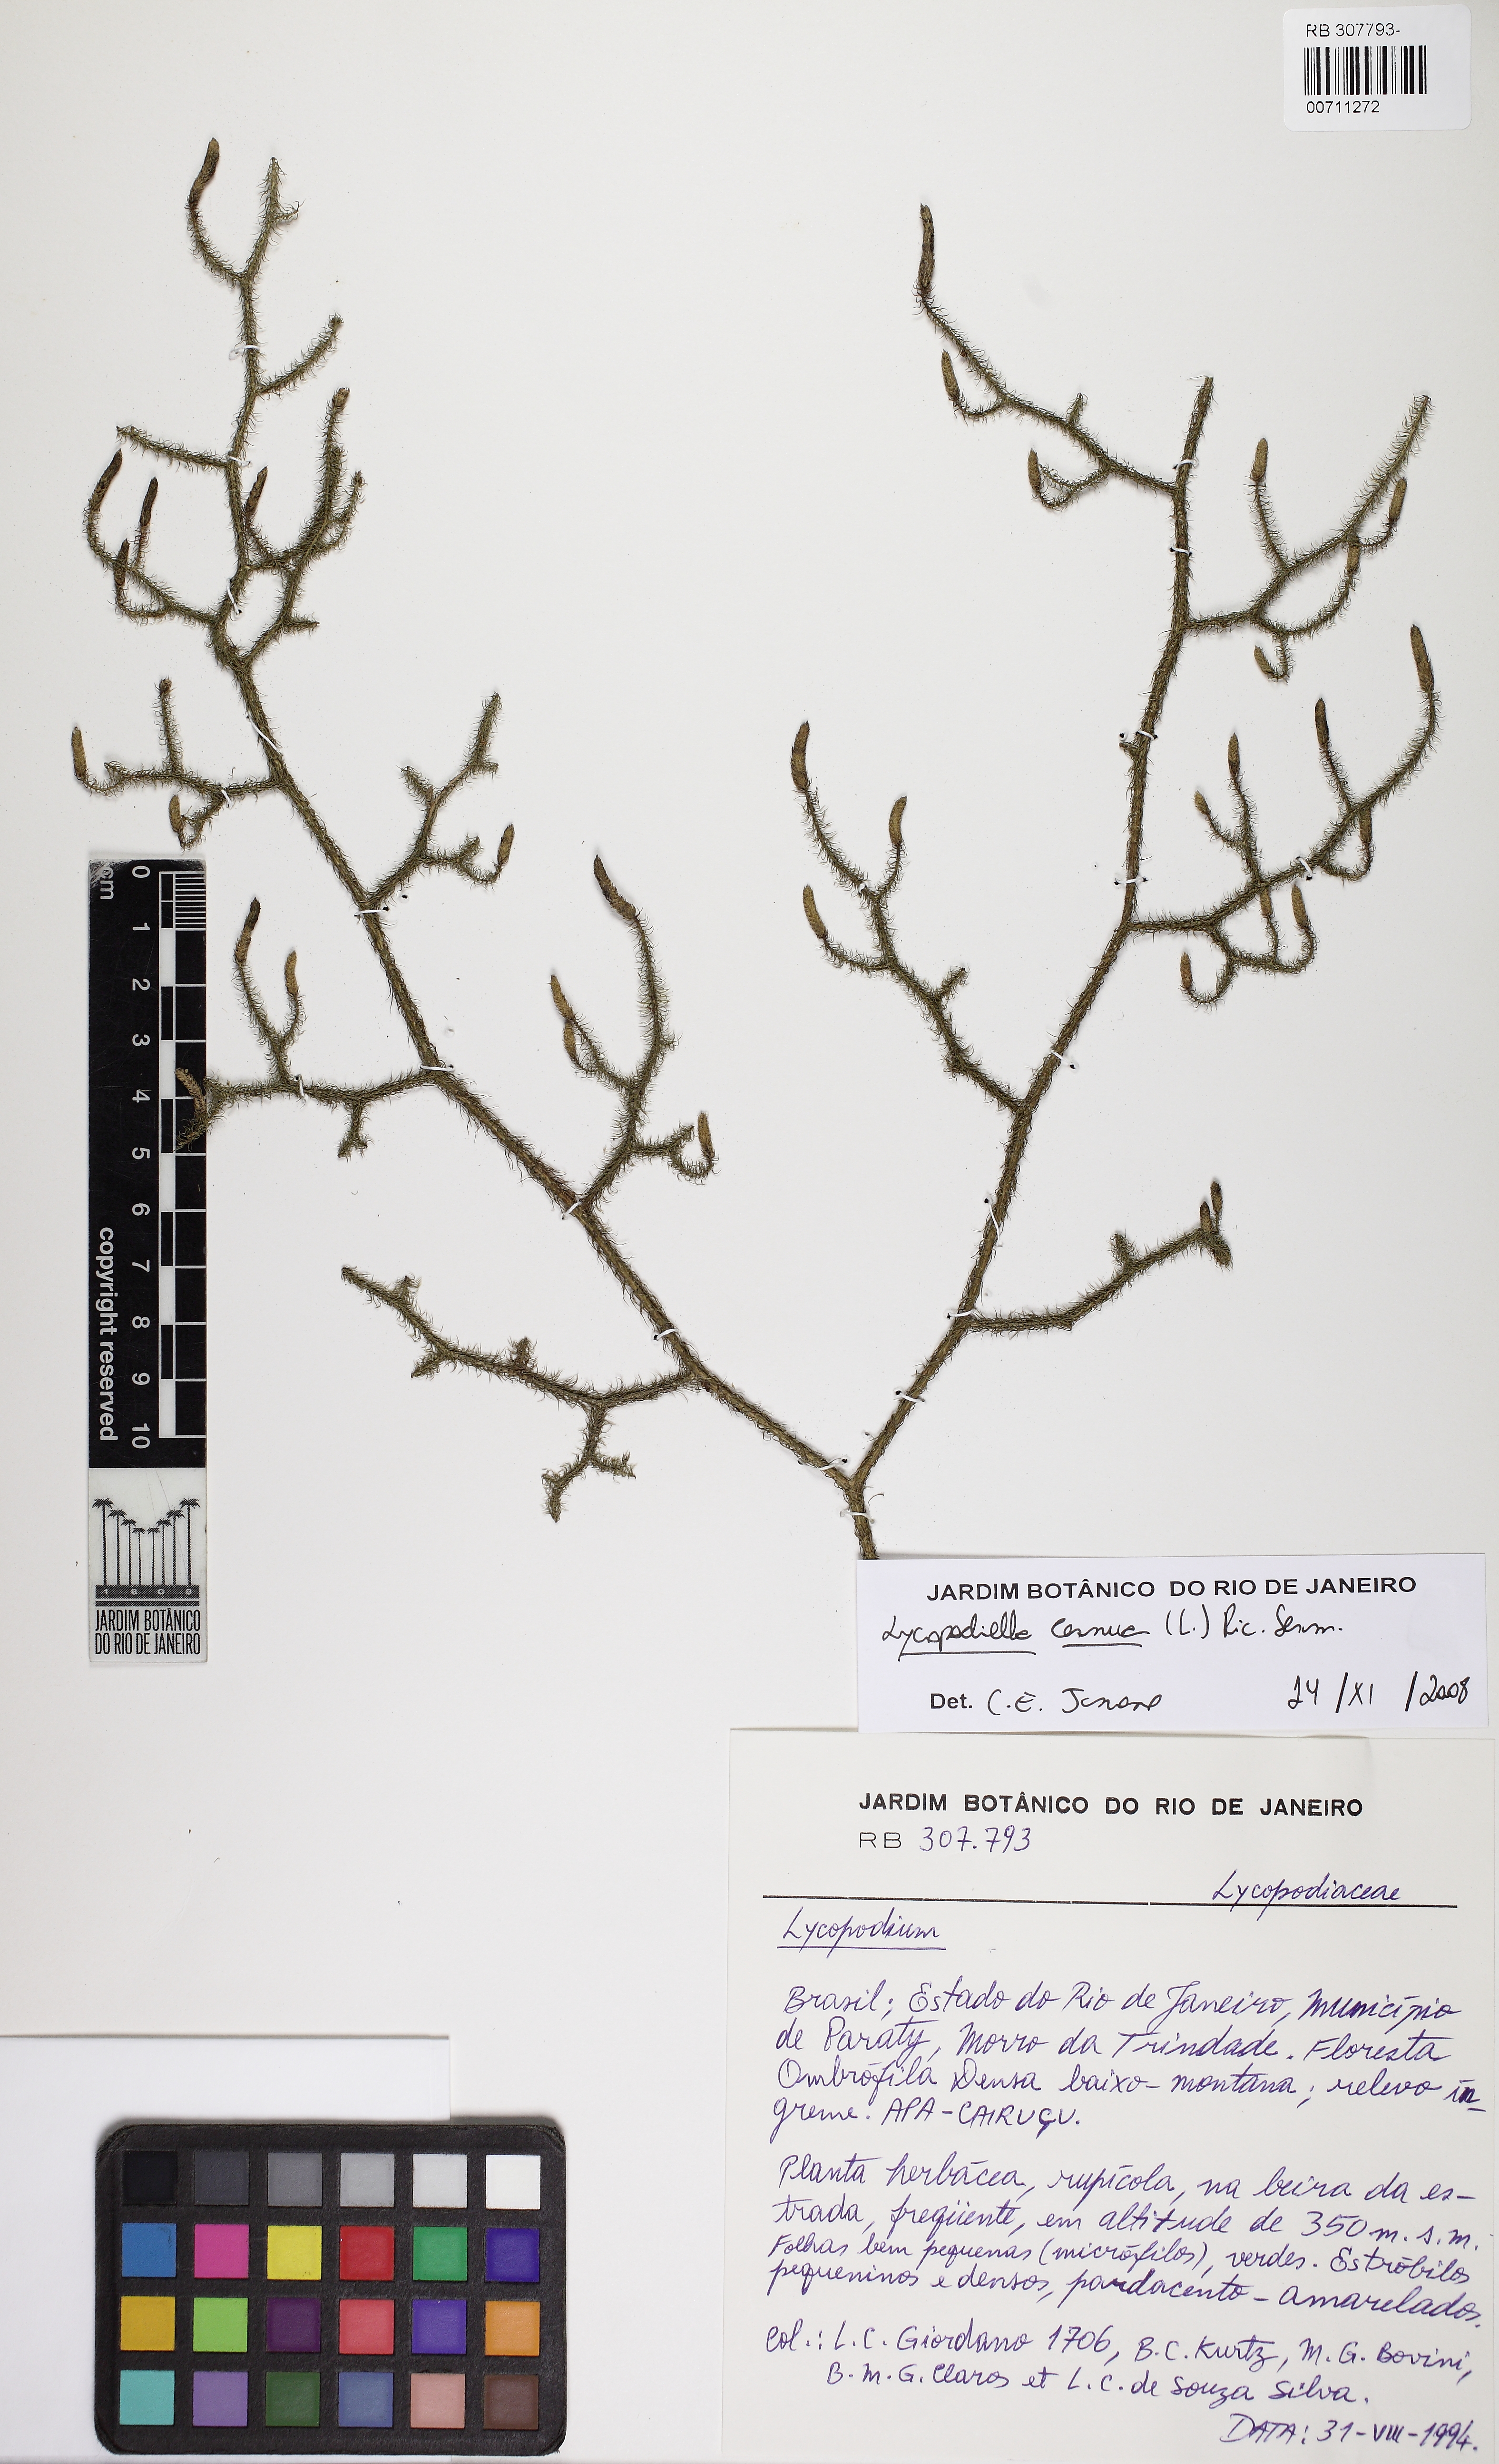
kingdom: Plantae
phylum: Tracheophyta
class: Lycopodiopsida
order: Lycopodiales
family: Lycopodiaceae
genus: Palhinhaea
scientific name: Palhinhaea cernua
